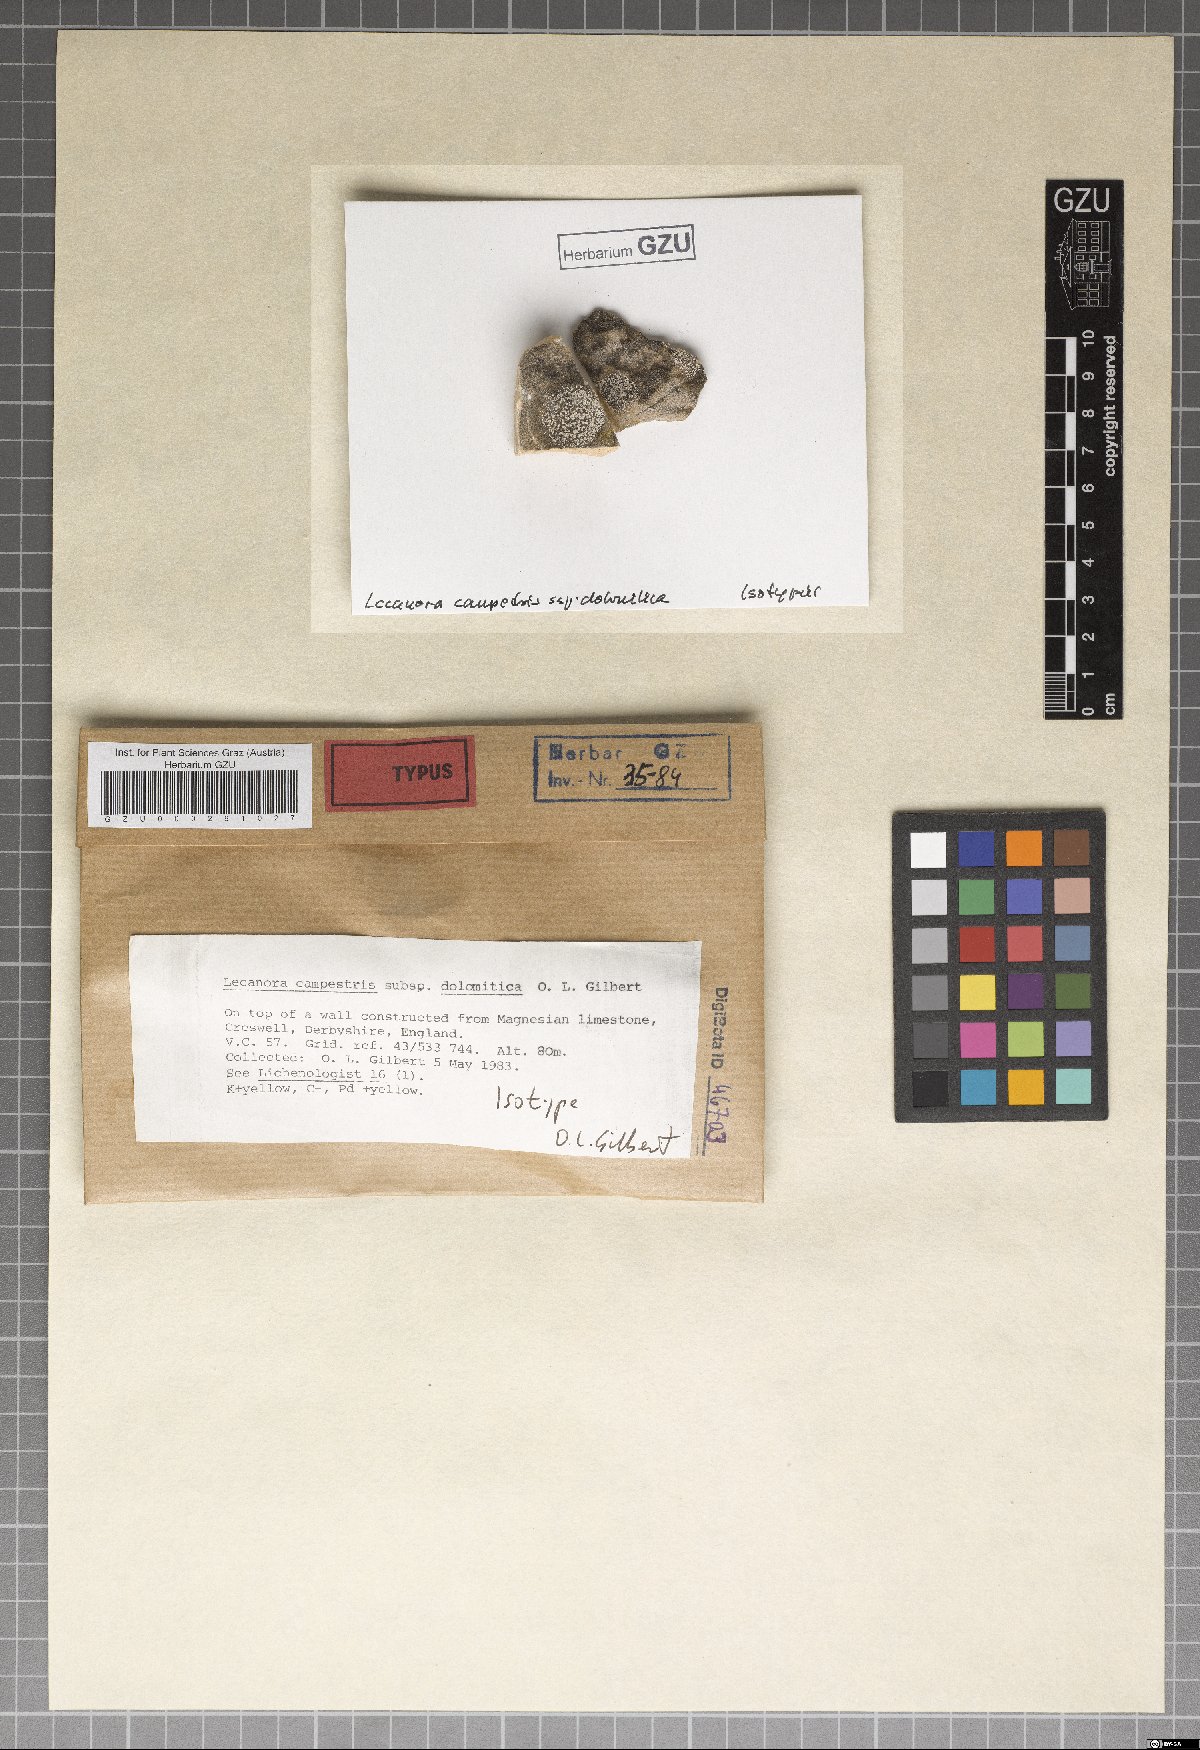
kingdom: Fungi
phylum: Ascomycota
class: Lecanoromycetes
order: Lecanorales
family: Lecanoraceae
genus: Lecanora
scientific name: Lecanora campestris
